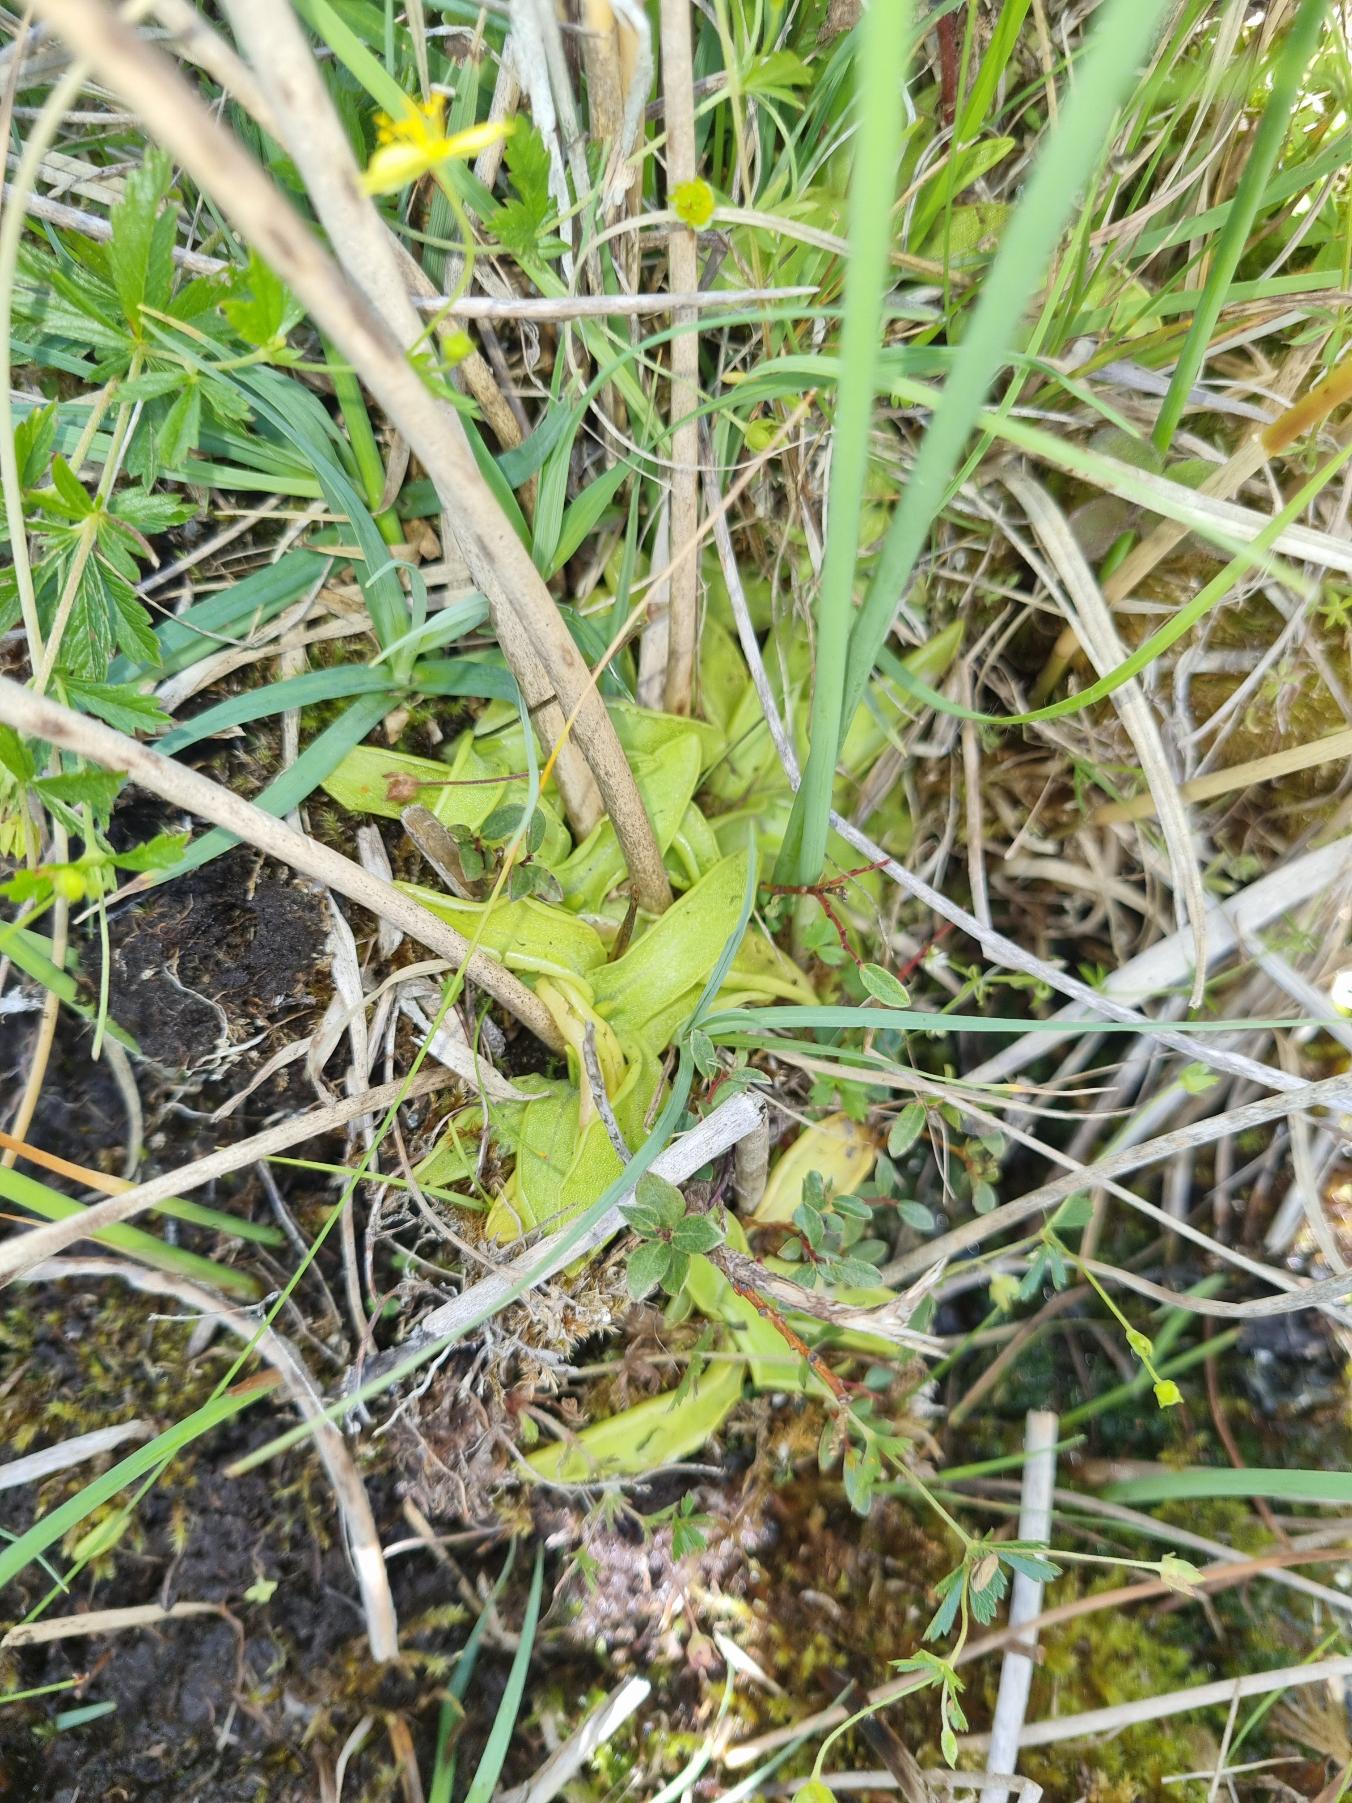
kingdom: Plantae
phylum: Tracheophyta
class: Magnoliopsida
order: Lamiales
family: Lentibulariaceae
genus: Pinguicula
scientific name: Pinguicula vulgaris
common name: Vibefedt
